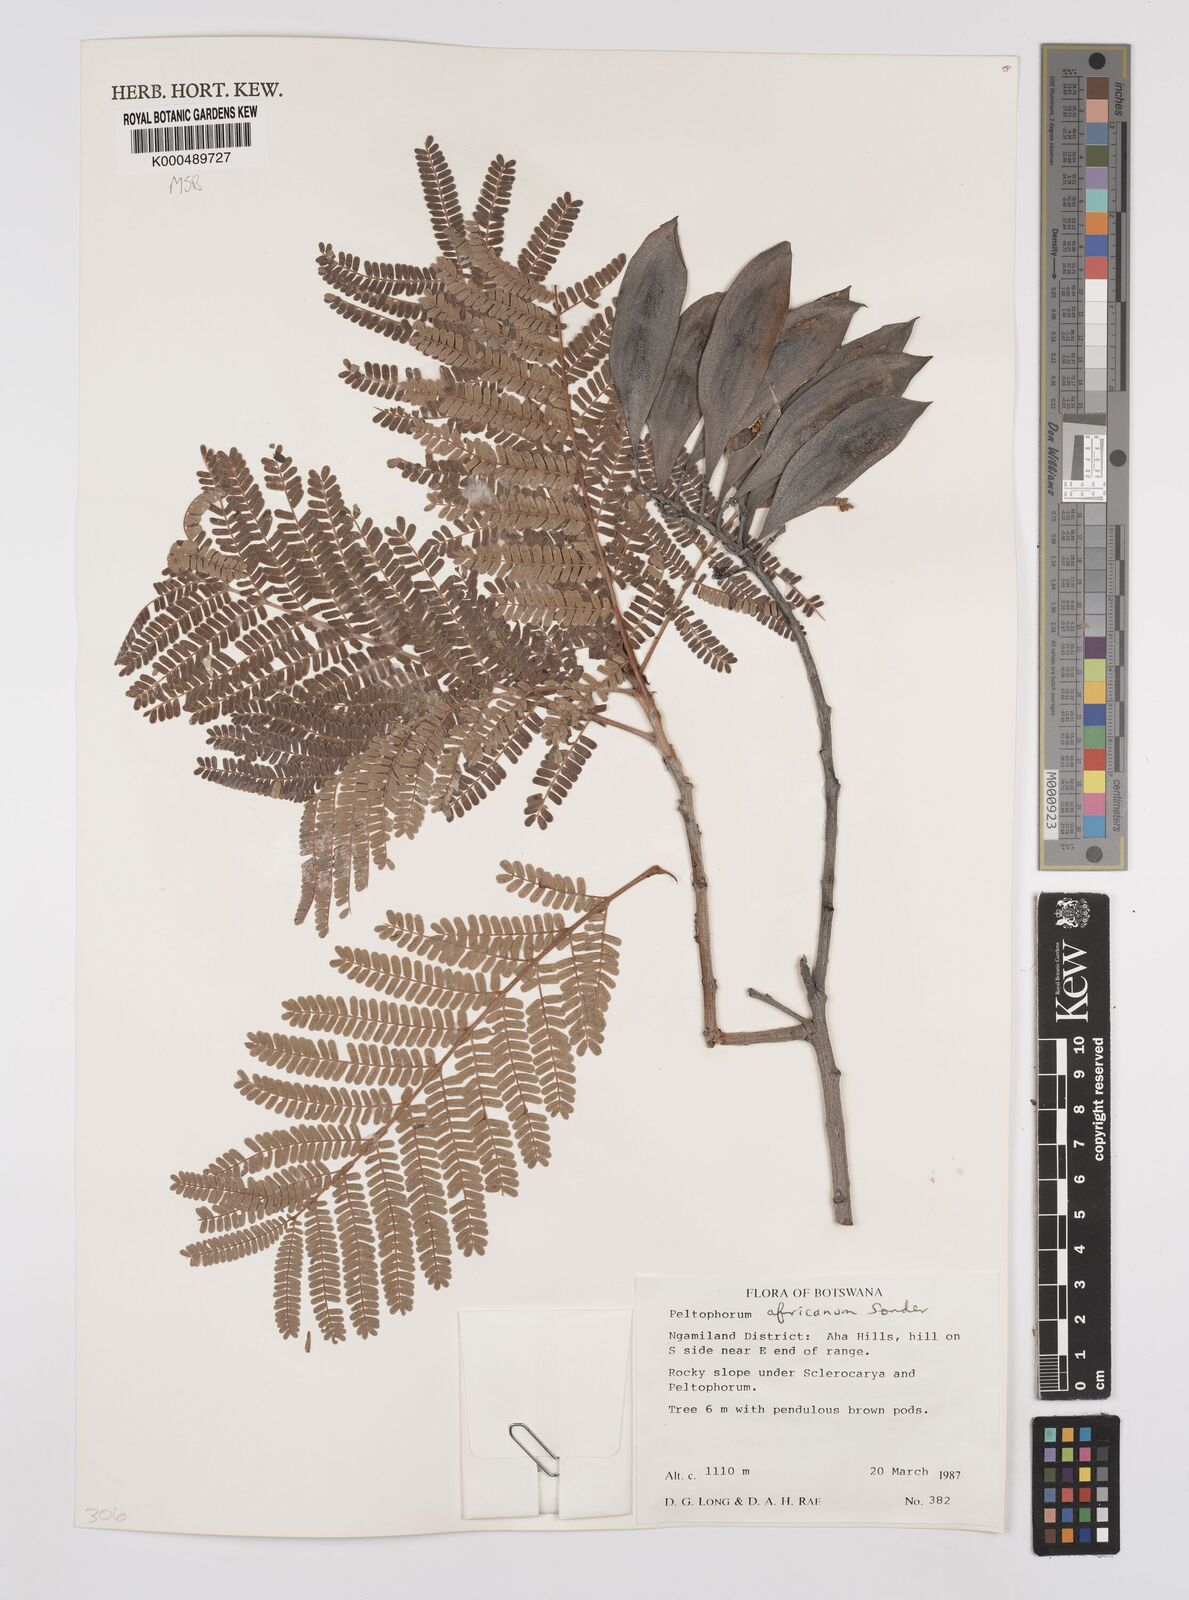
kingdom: Plantae
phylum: Tracheophyta
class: Magnoliopsida
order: Fabales
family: Fabaceae
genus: Peltophorum
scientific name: Peltophorum africanum
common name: African black wattle
